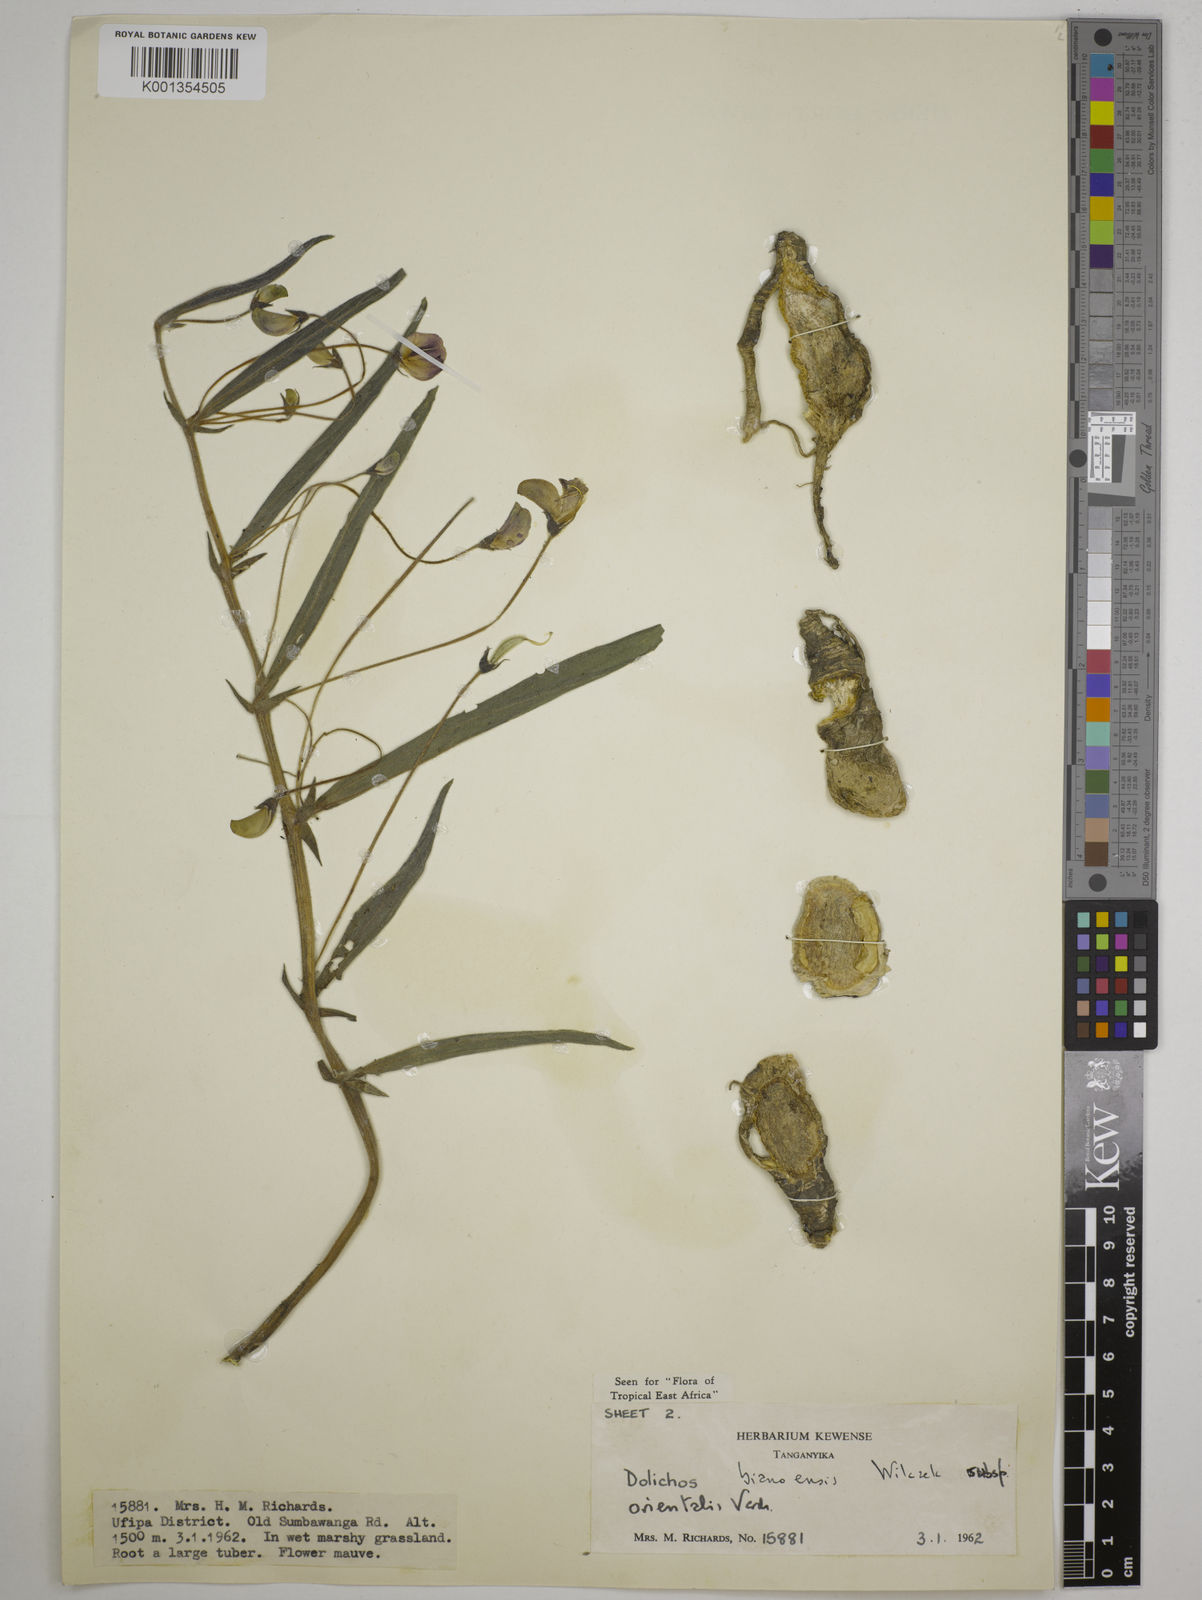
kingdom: Plantae
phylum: Tracheophyta
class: Magnoliopsida
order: Fabales
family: Fabaceae
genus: Dolichos
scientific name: Dolichos
